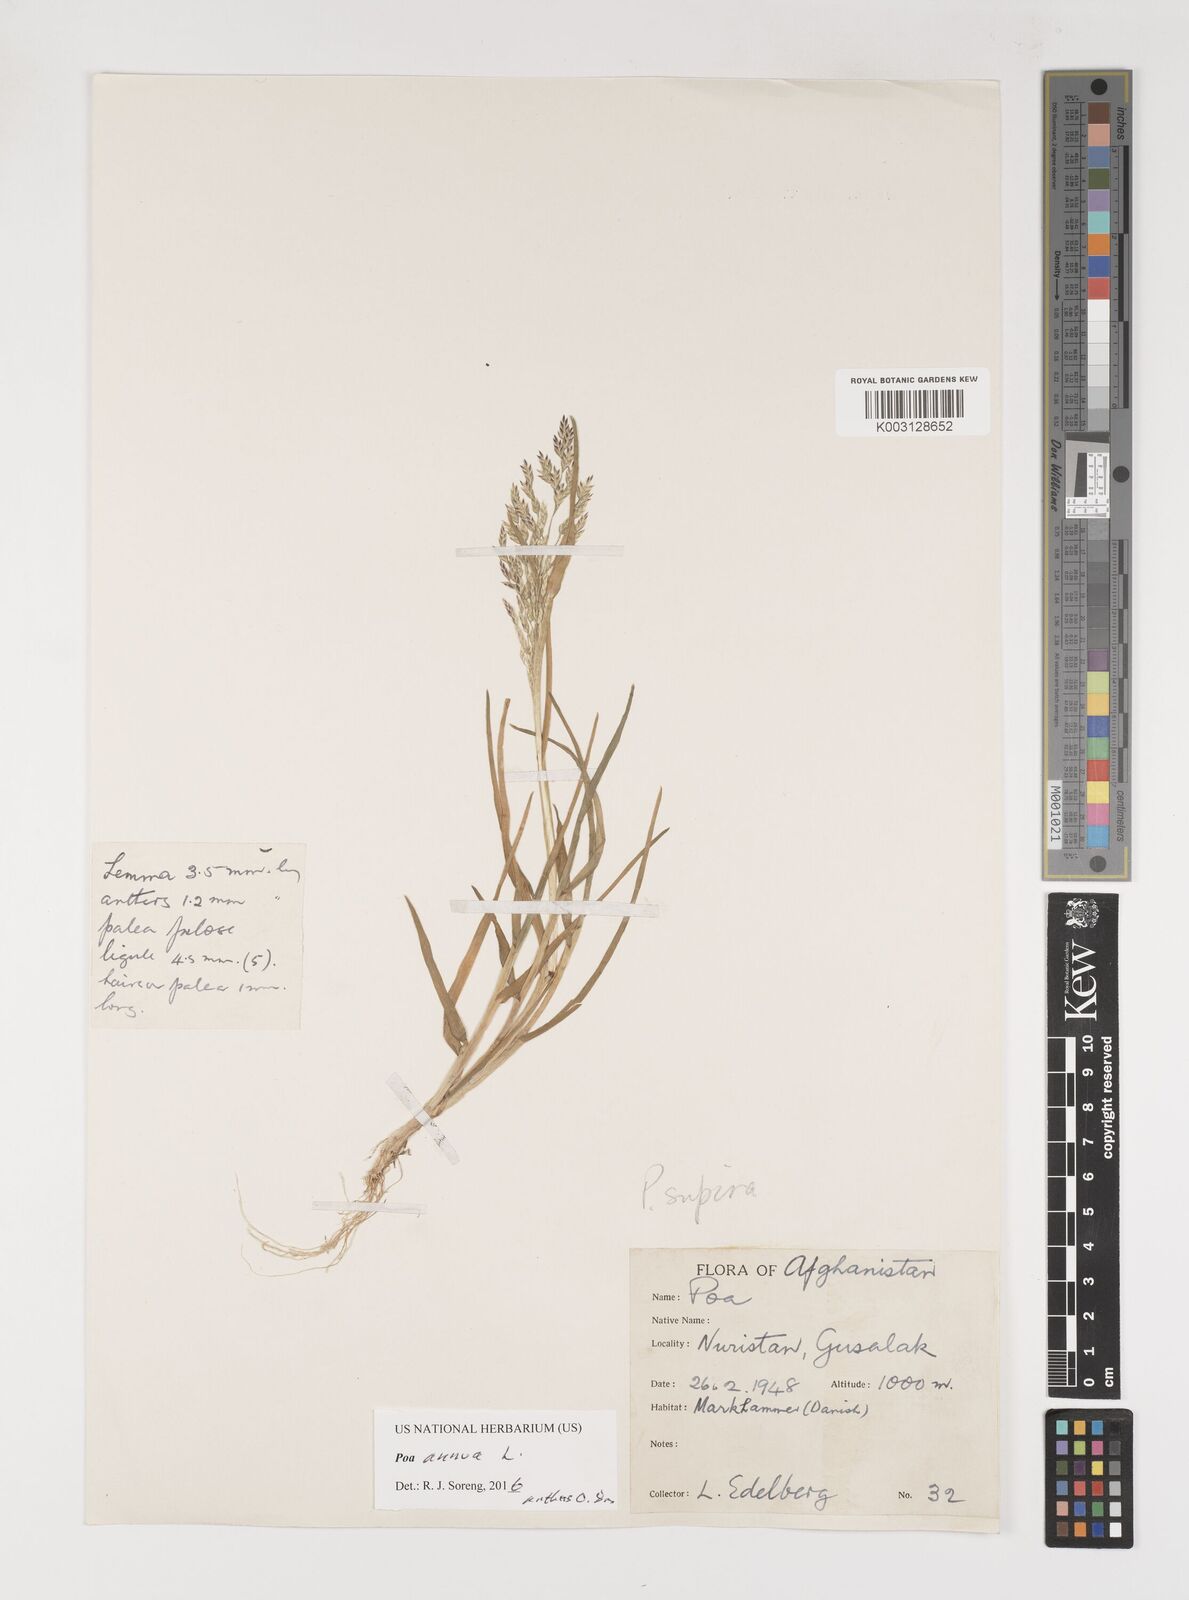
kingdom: Plantae
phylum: Tracheophyta
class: Liliopsida
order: Poales
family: Poaceae
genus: Poa
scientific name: Poa annua
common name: Annual bluegrass
